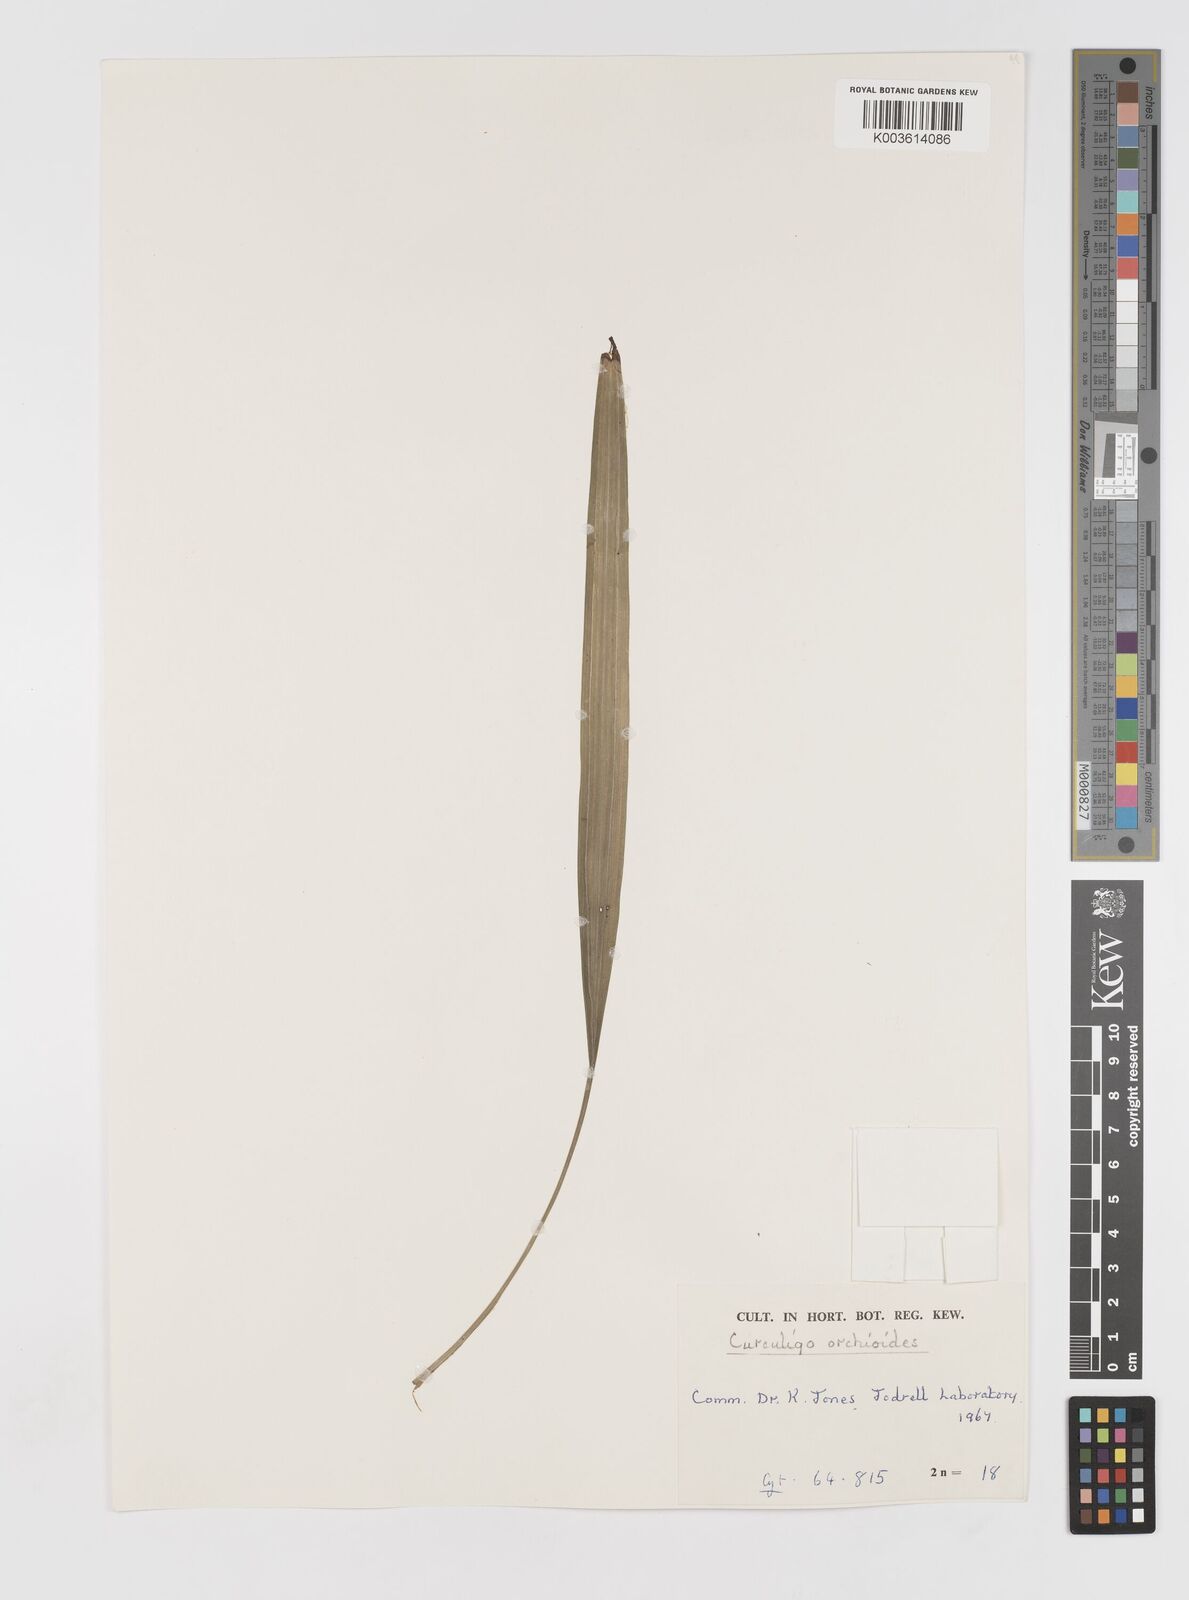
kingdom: Plantae
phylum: Tracheophyta
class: Liliopsida
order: Asparagales
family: Hypoxidaceae
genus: Curculigo
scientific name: Curculigo orchioides
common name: Golden eye-grass
